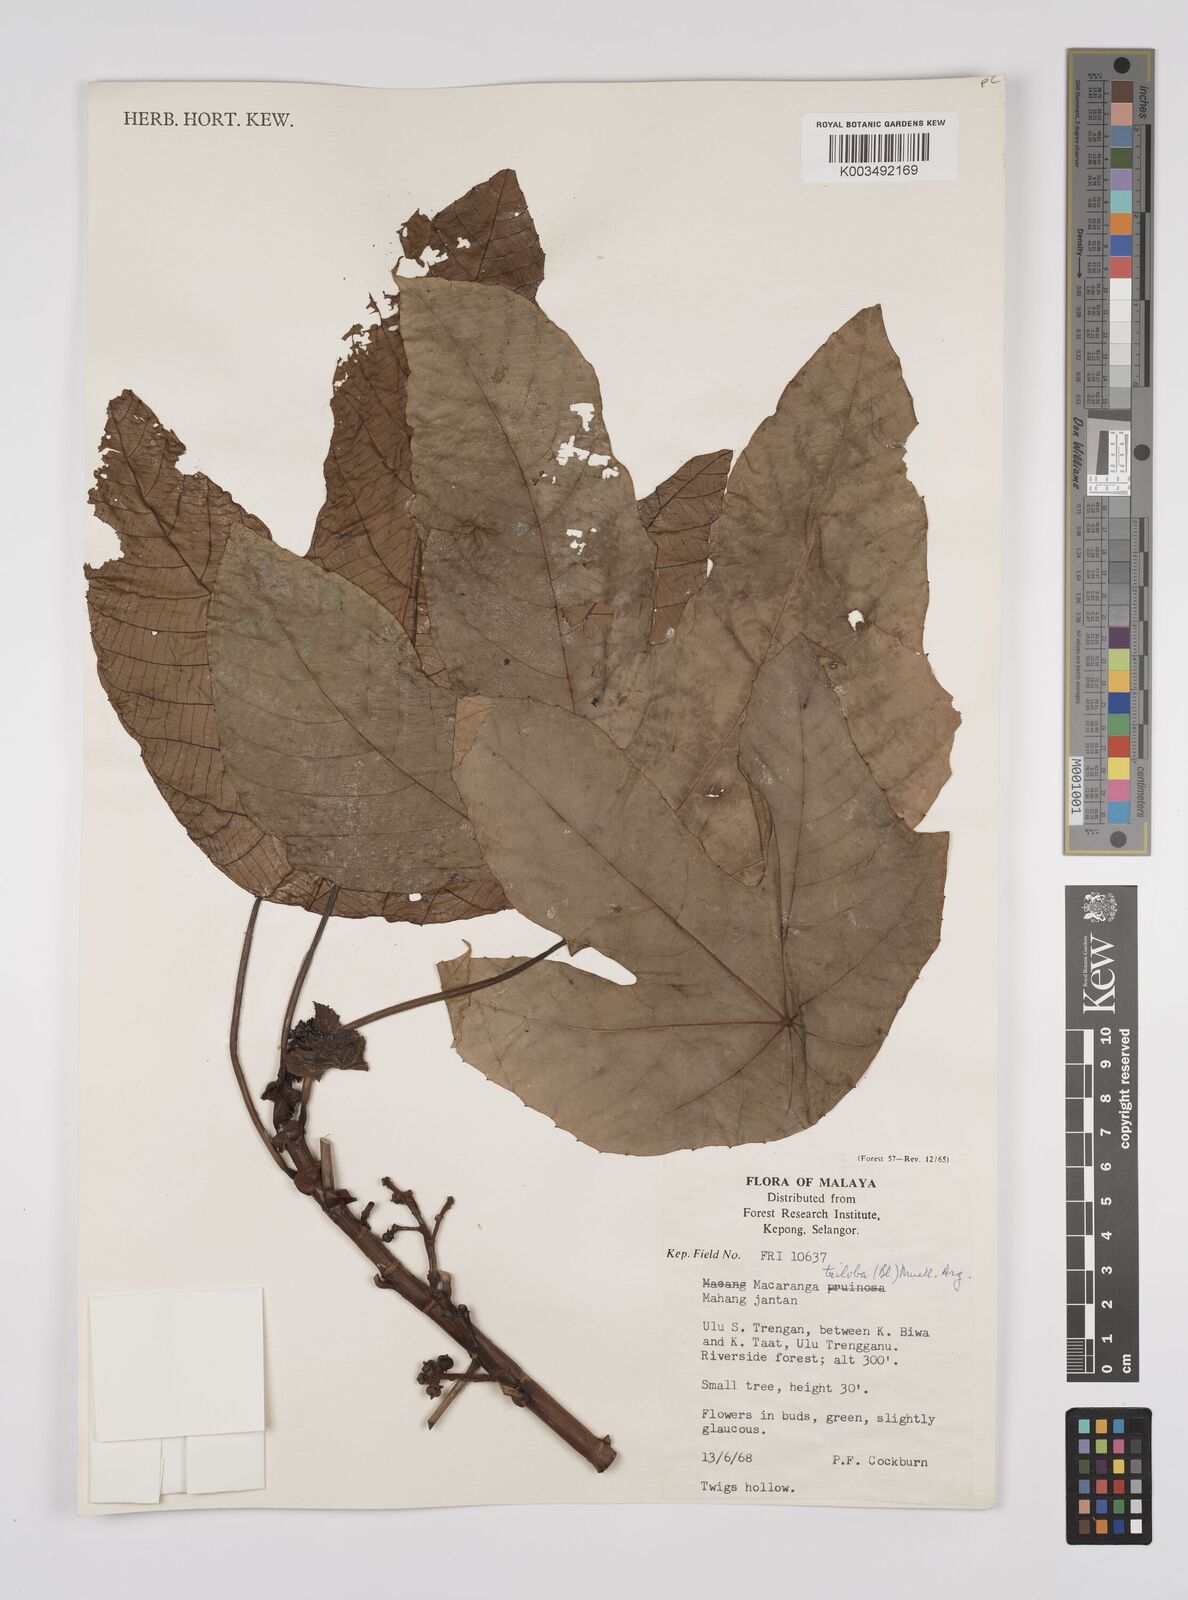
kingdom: Plantae
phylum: Tracheophyta
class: Magnoliopsida
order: Malpighiales
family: Euphorbiaceae
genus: Macaranga
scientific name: Macaranga triloba
